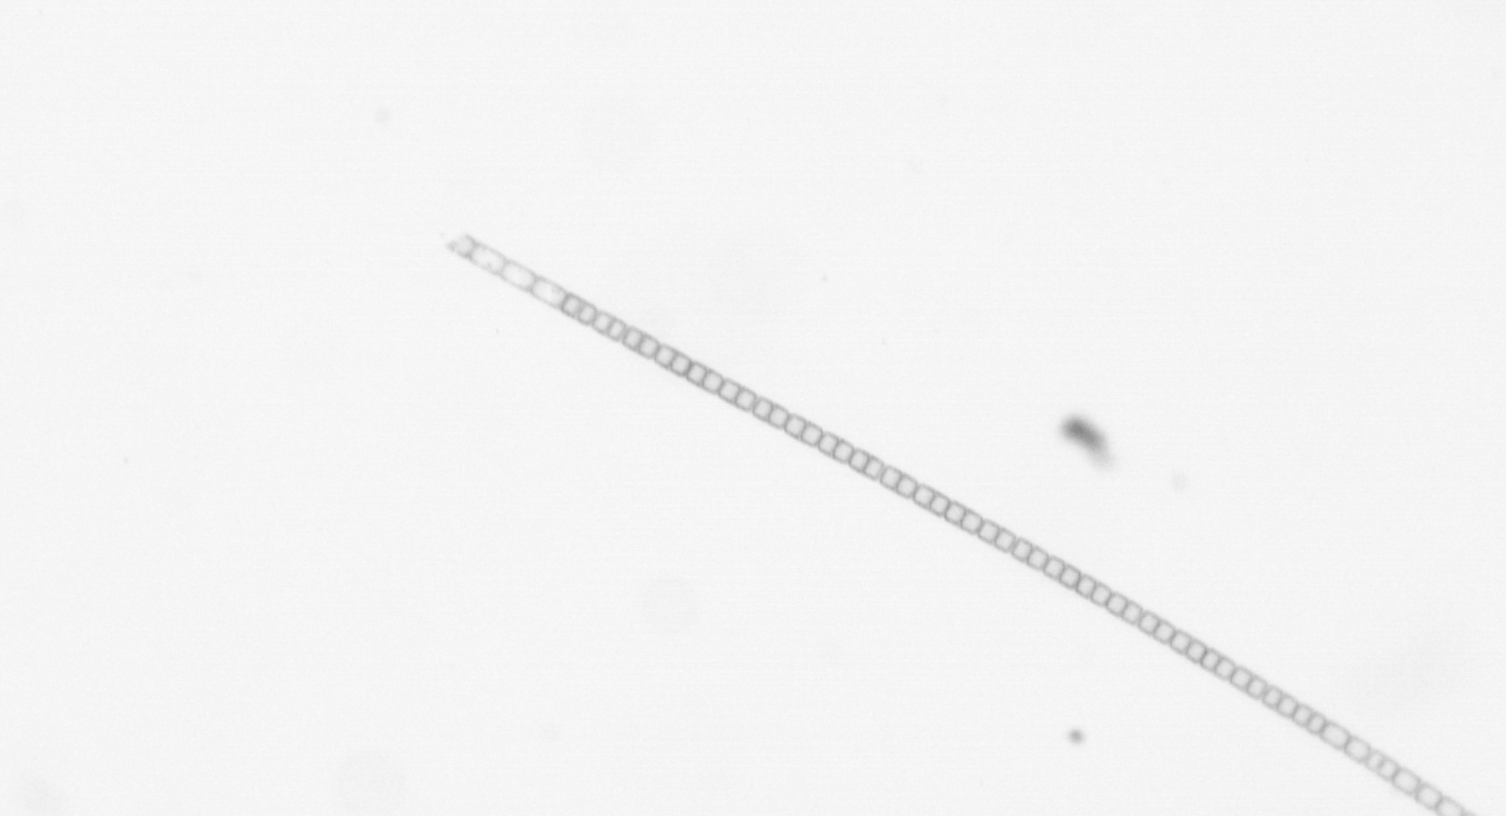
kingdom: Chromista
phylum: Ochrophyta
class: Bacillariophyceae
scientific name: Bacillariophyceae
